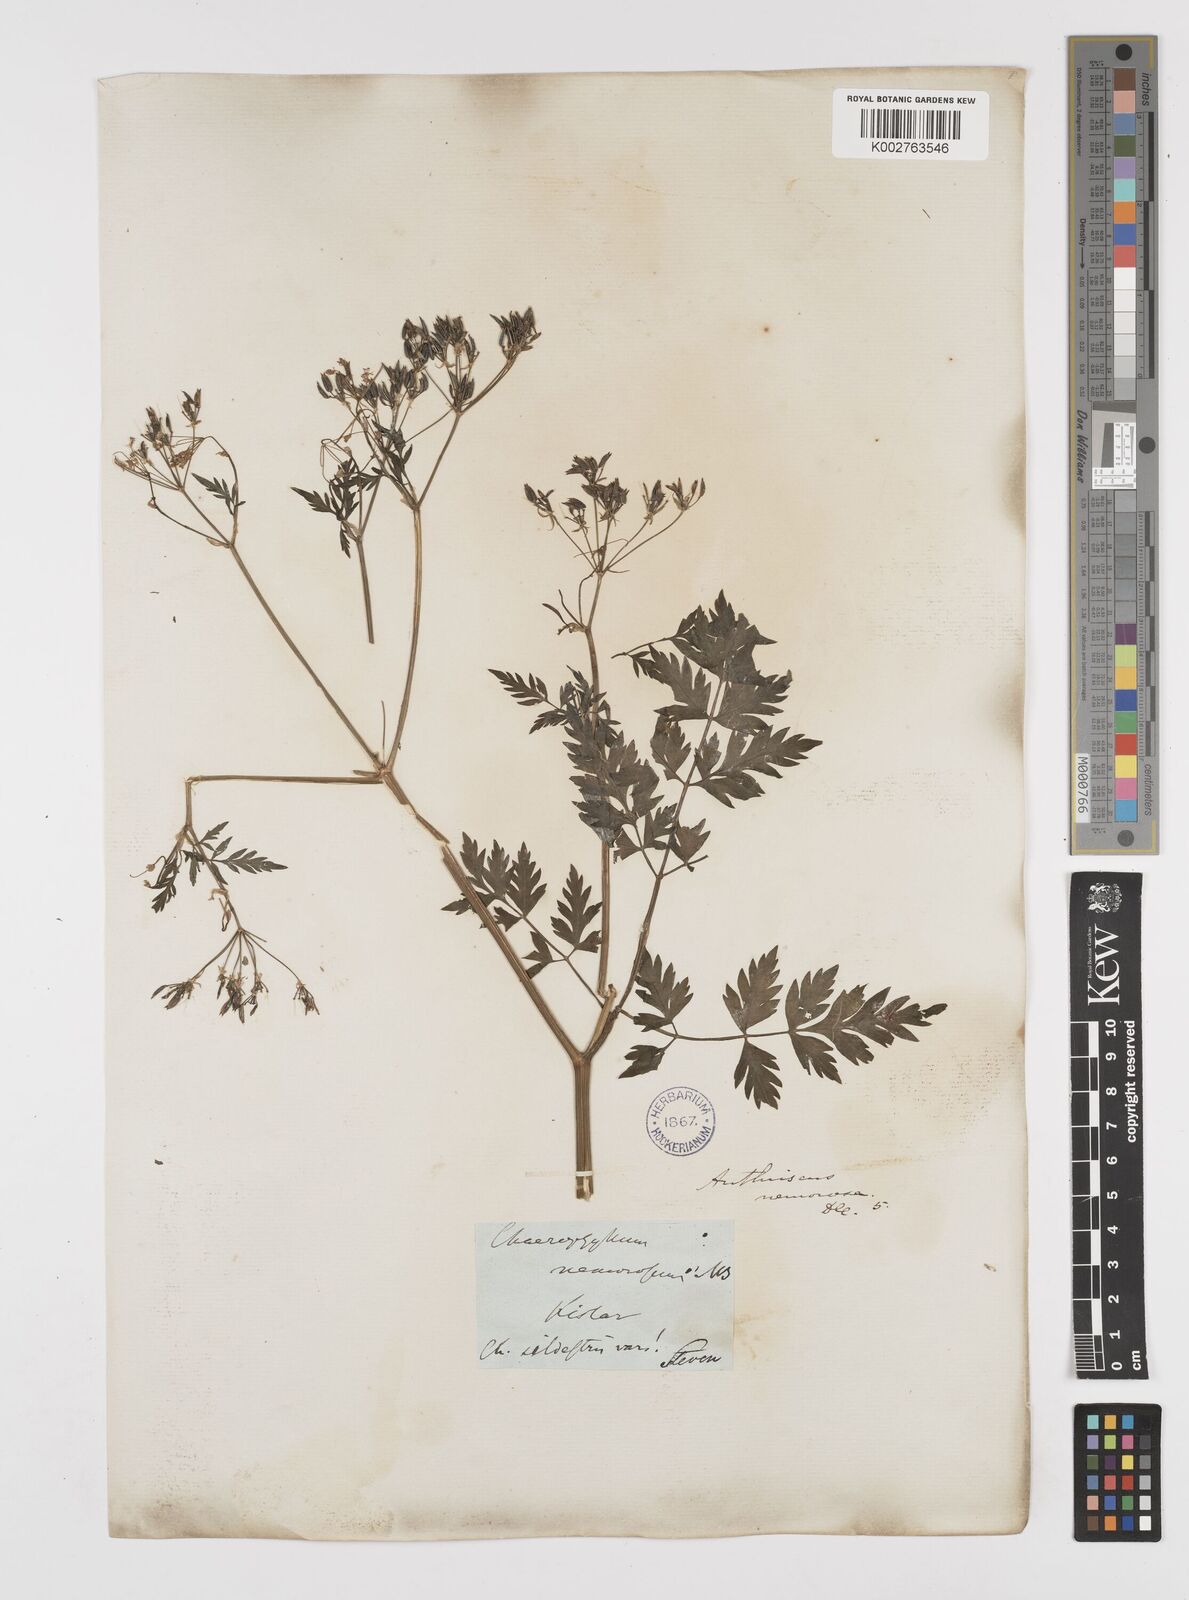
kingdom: Plantae
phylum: Tracheophyta
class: Magnoliopsida
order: Apiales
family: Apiaceae
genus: Anthriscus
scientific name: Anthriscus sylvestris
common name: Cow parsley
